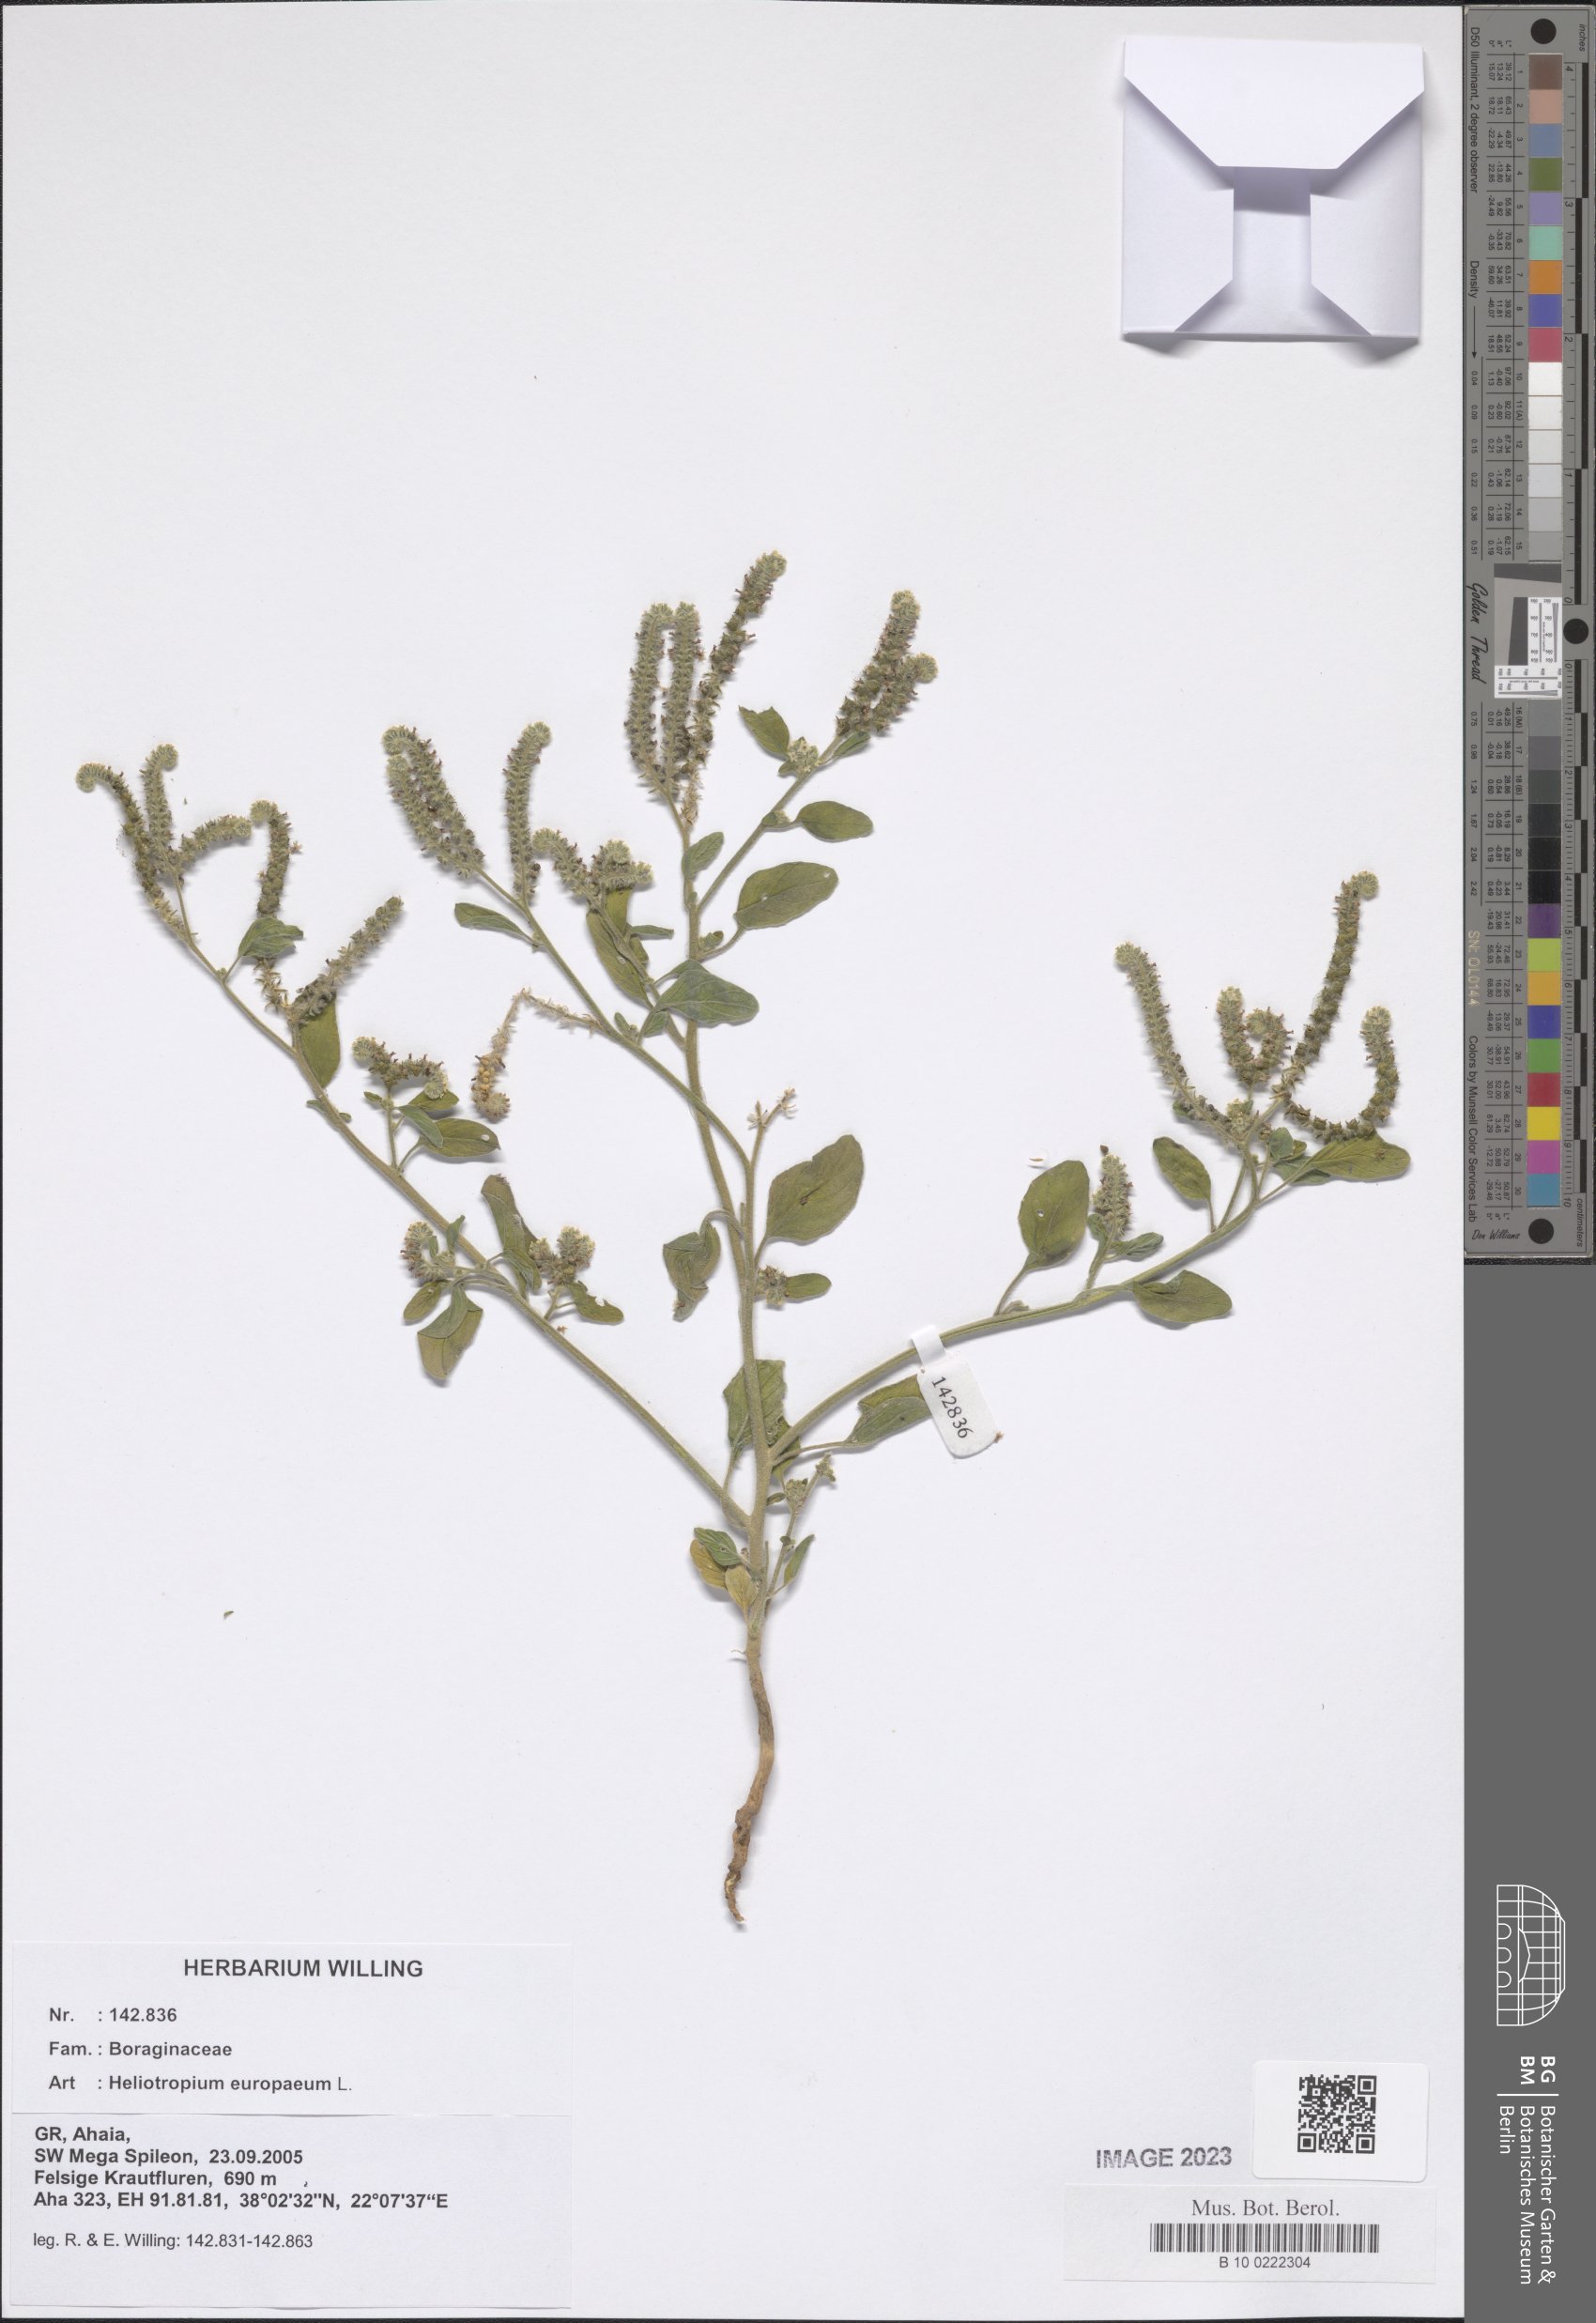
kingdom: Plantae
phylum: Tracheophyta
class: Magnoliopsida
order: Boraginales
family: Heliotropiaceae
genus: Heliotropium
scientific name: Heliotropium europaeum
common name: European heliotrope
